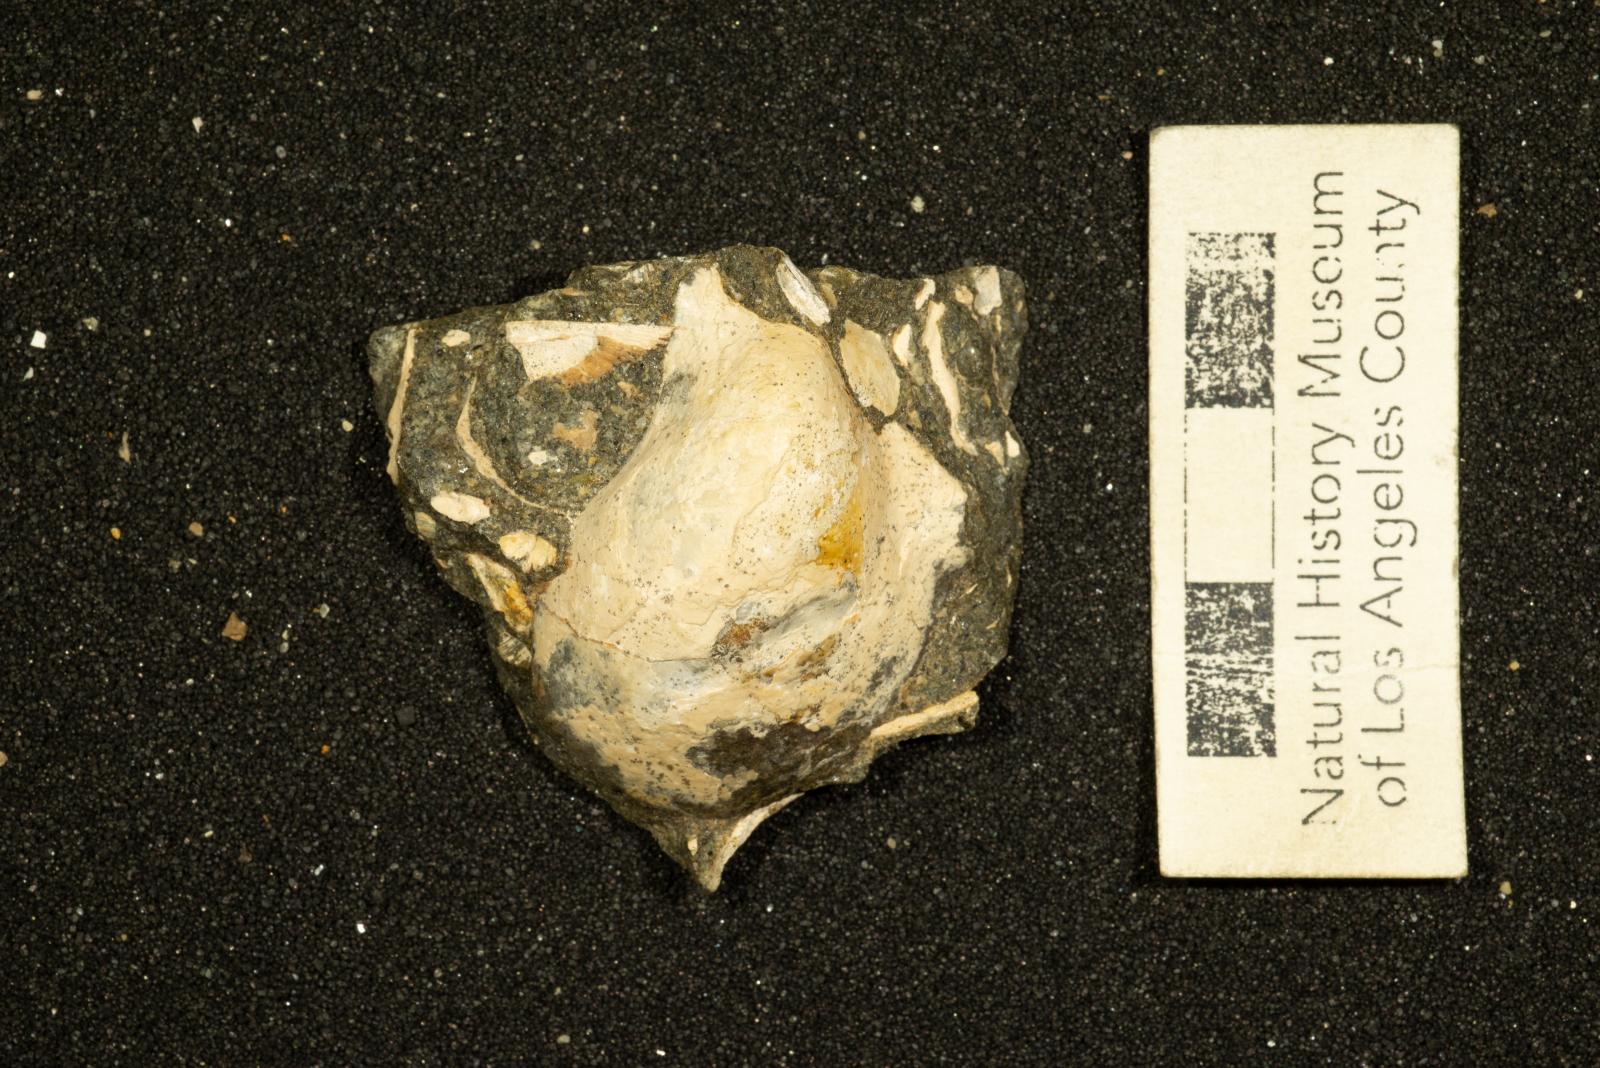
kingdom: Animalia
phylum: Mollusca
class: Bivalvia
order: Ostreida
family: Pteriidae
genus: Pteria
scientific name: Pteria pellucida
